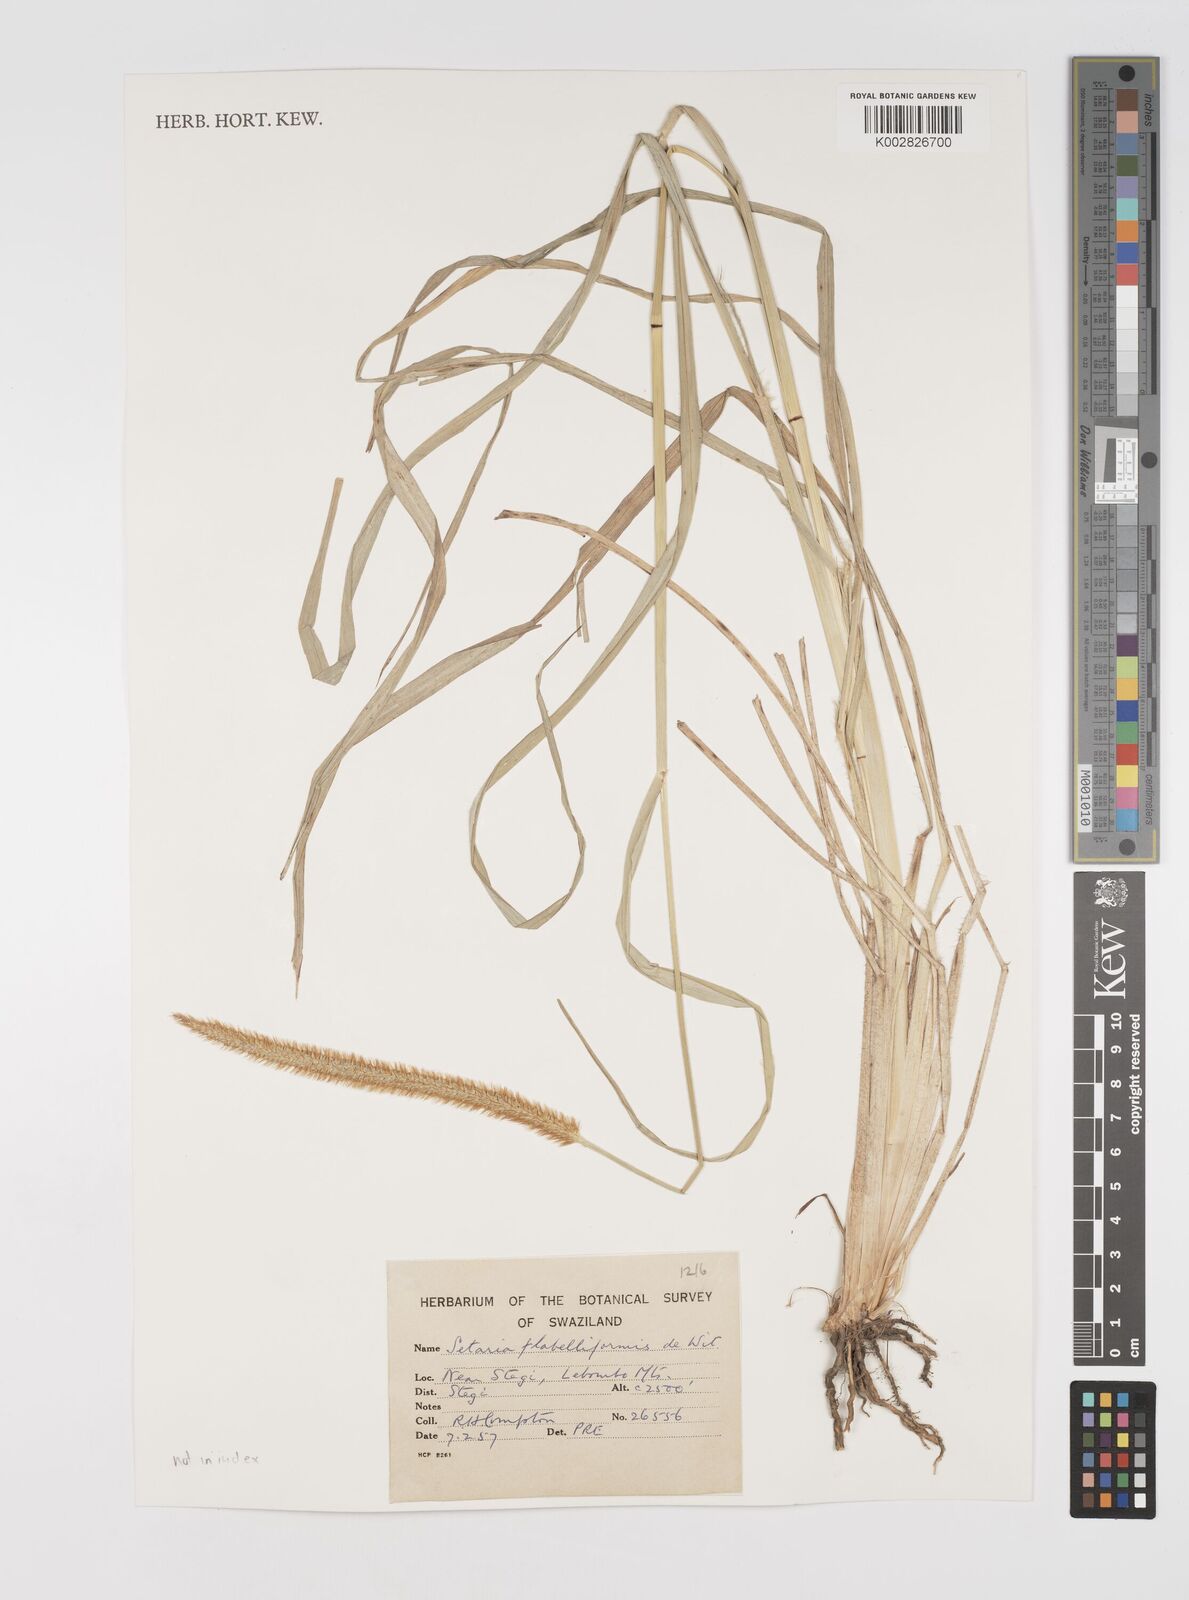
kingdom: Plantae
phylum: Tracheophyta
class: Liliopsida
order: Poales
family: Poaceae
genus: Setaria
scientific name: Setaria sphacelata
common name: African bristlegrass
